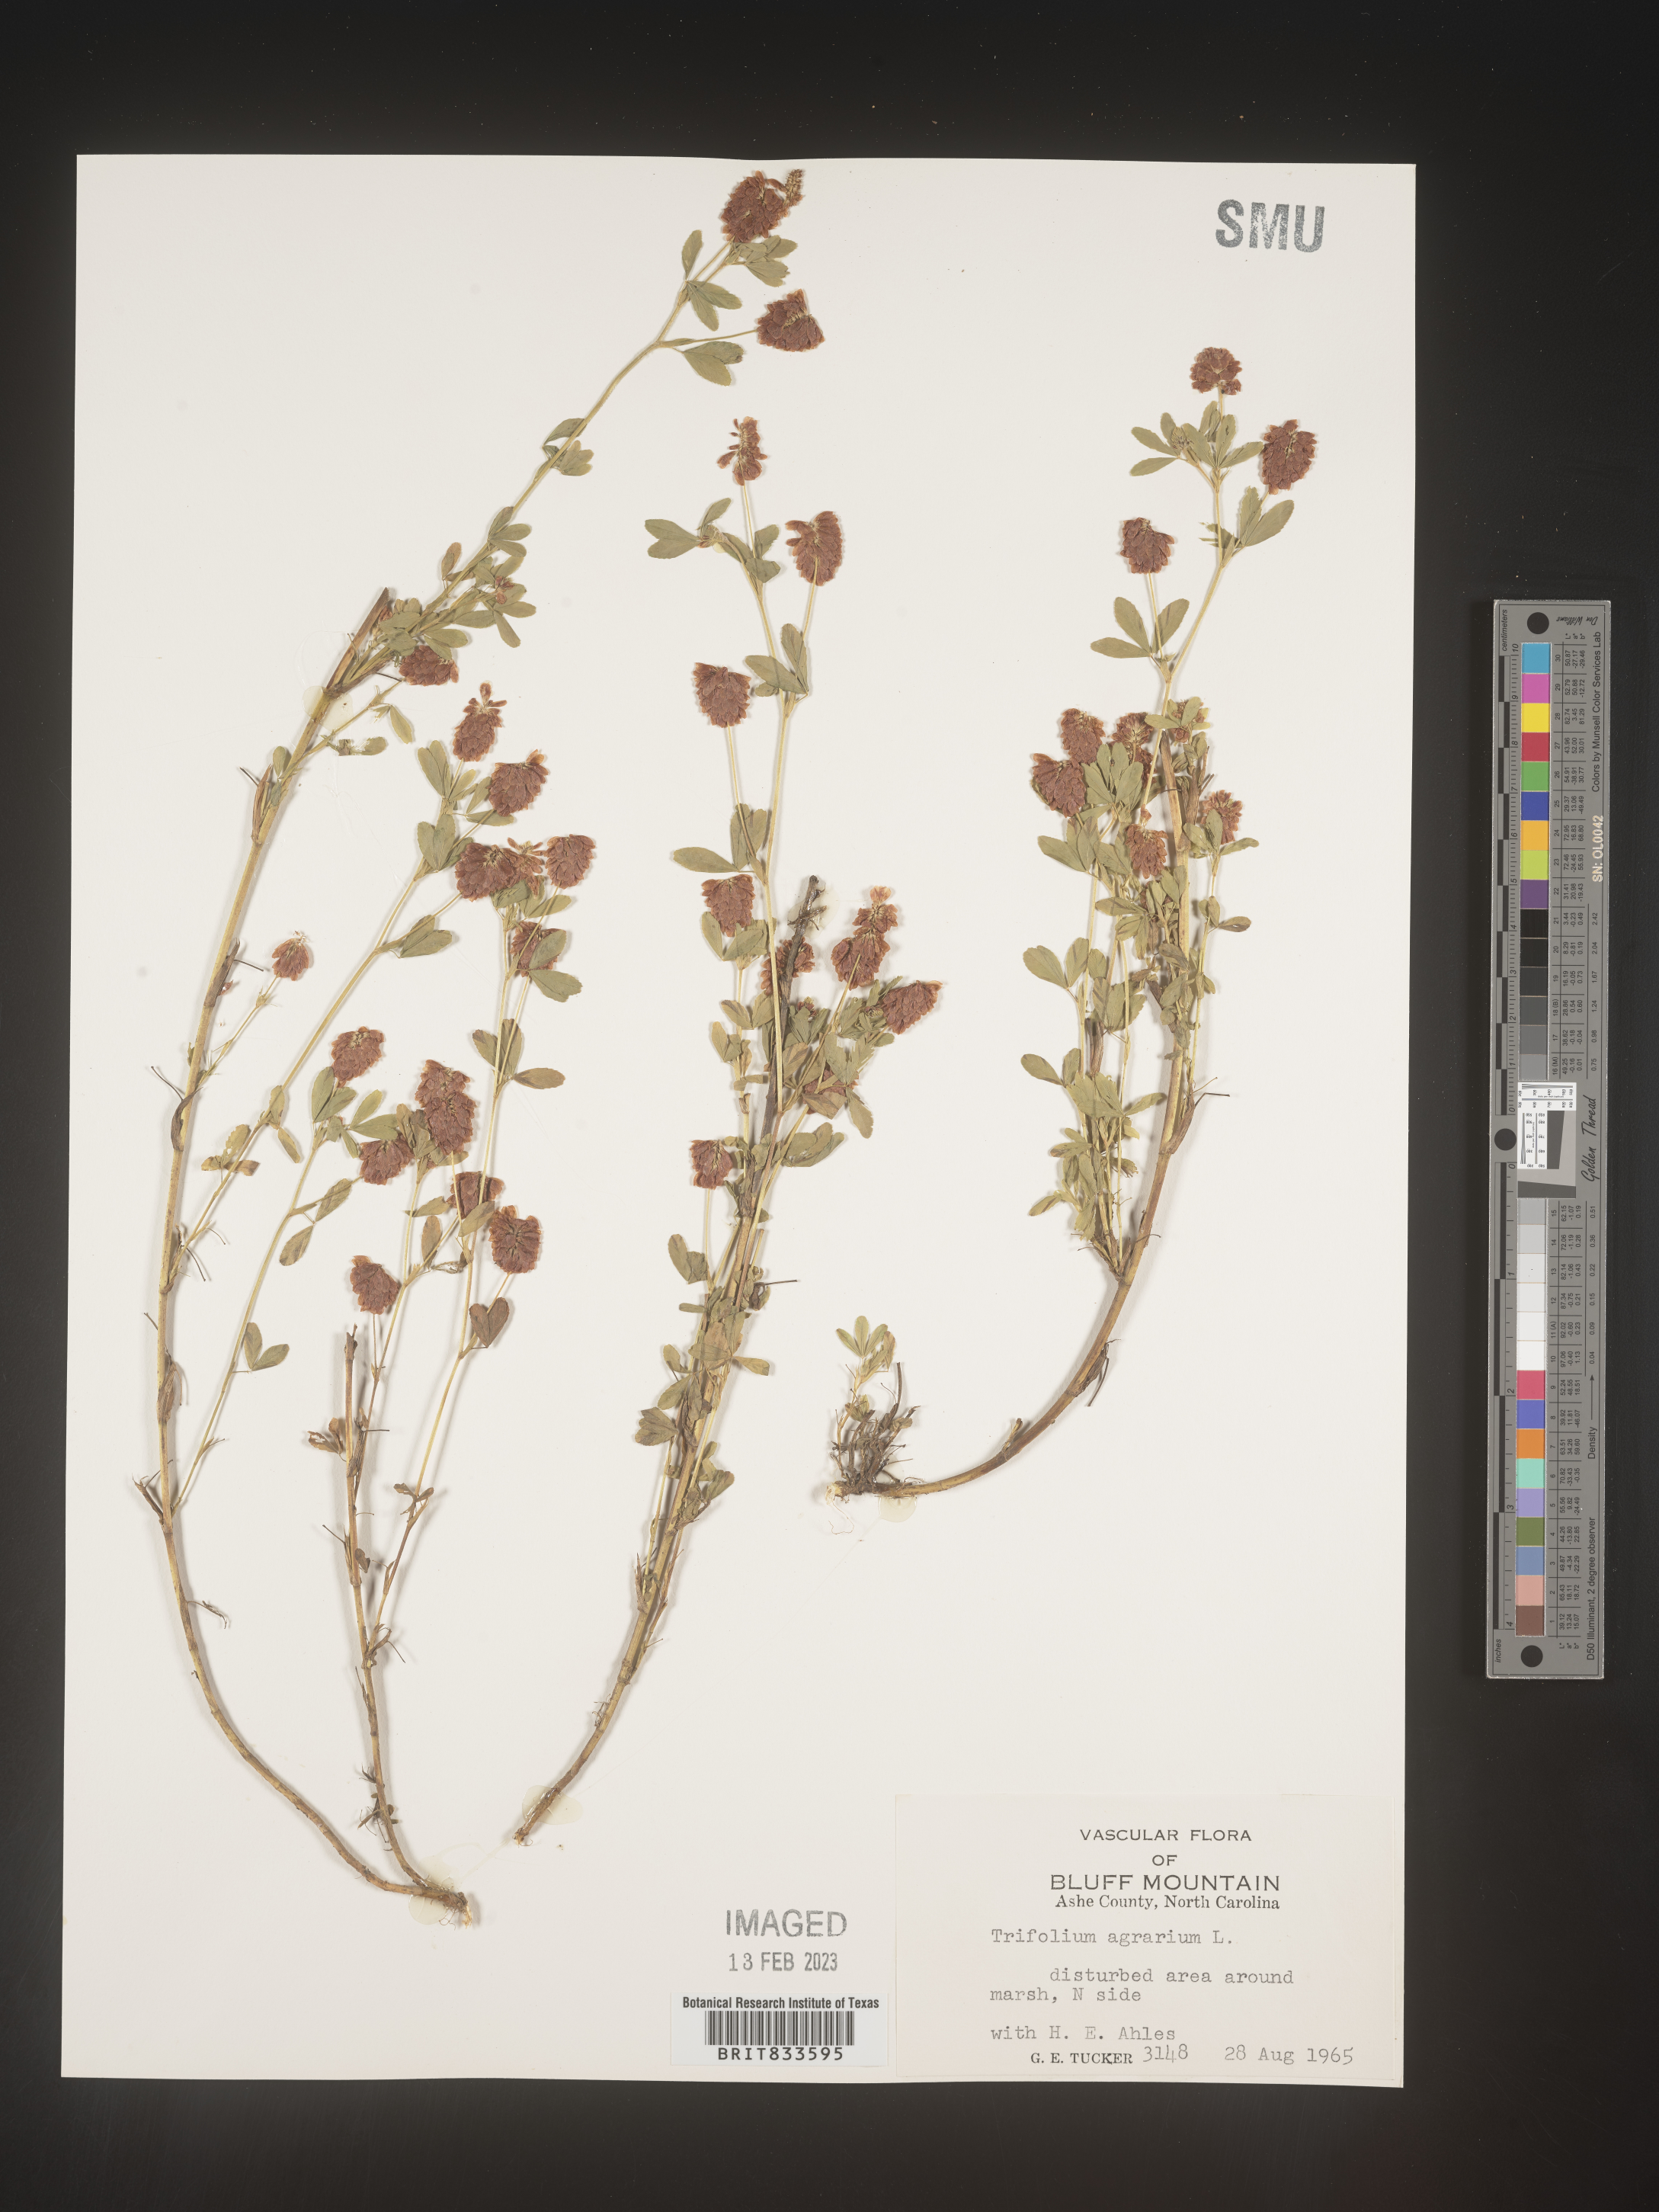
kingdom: Plantae
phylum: Tracheophyta
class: Magnoliopsida
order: Fabales
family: Fabaceae
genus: Trifolium
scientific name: Trifolium agrarium
